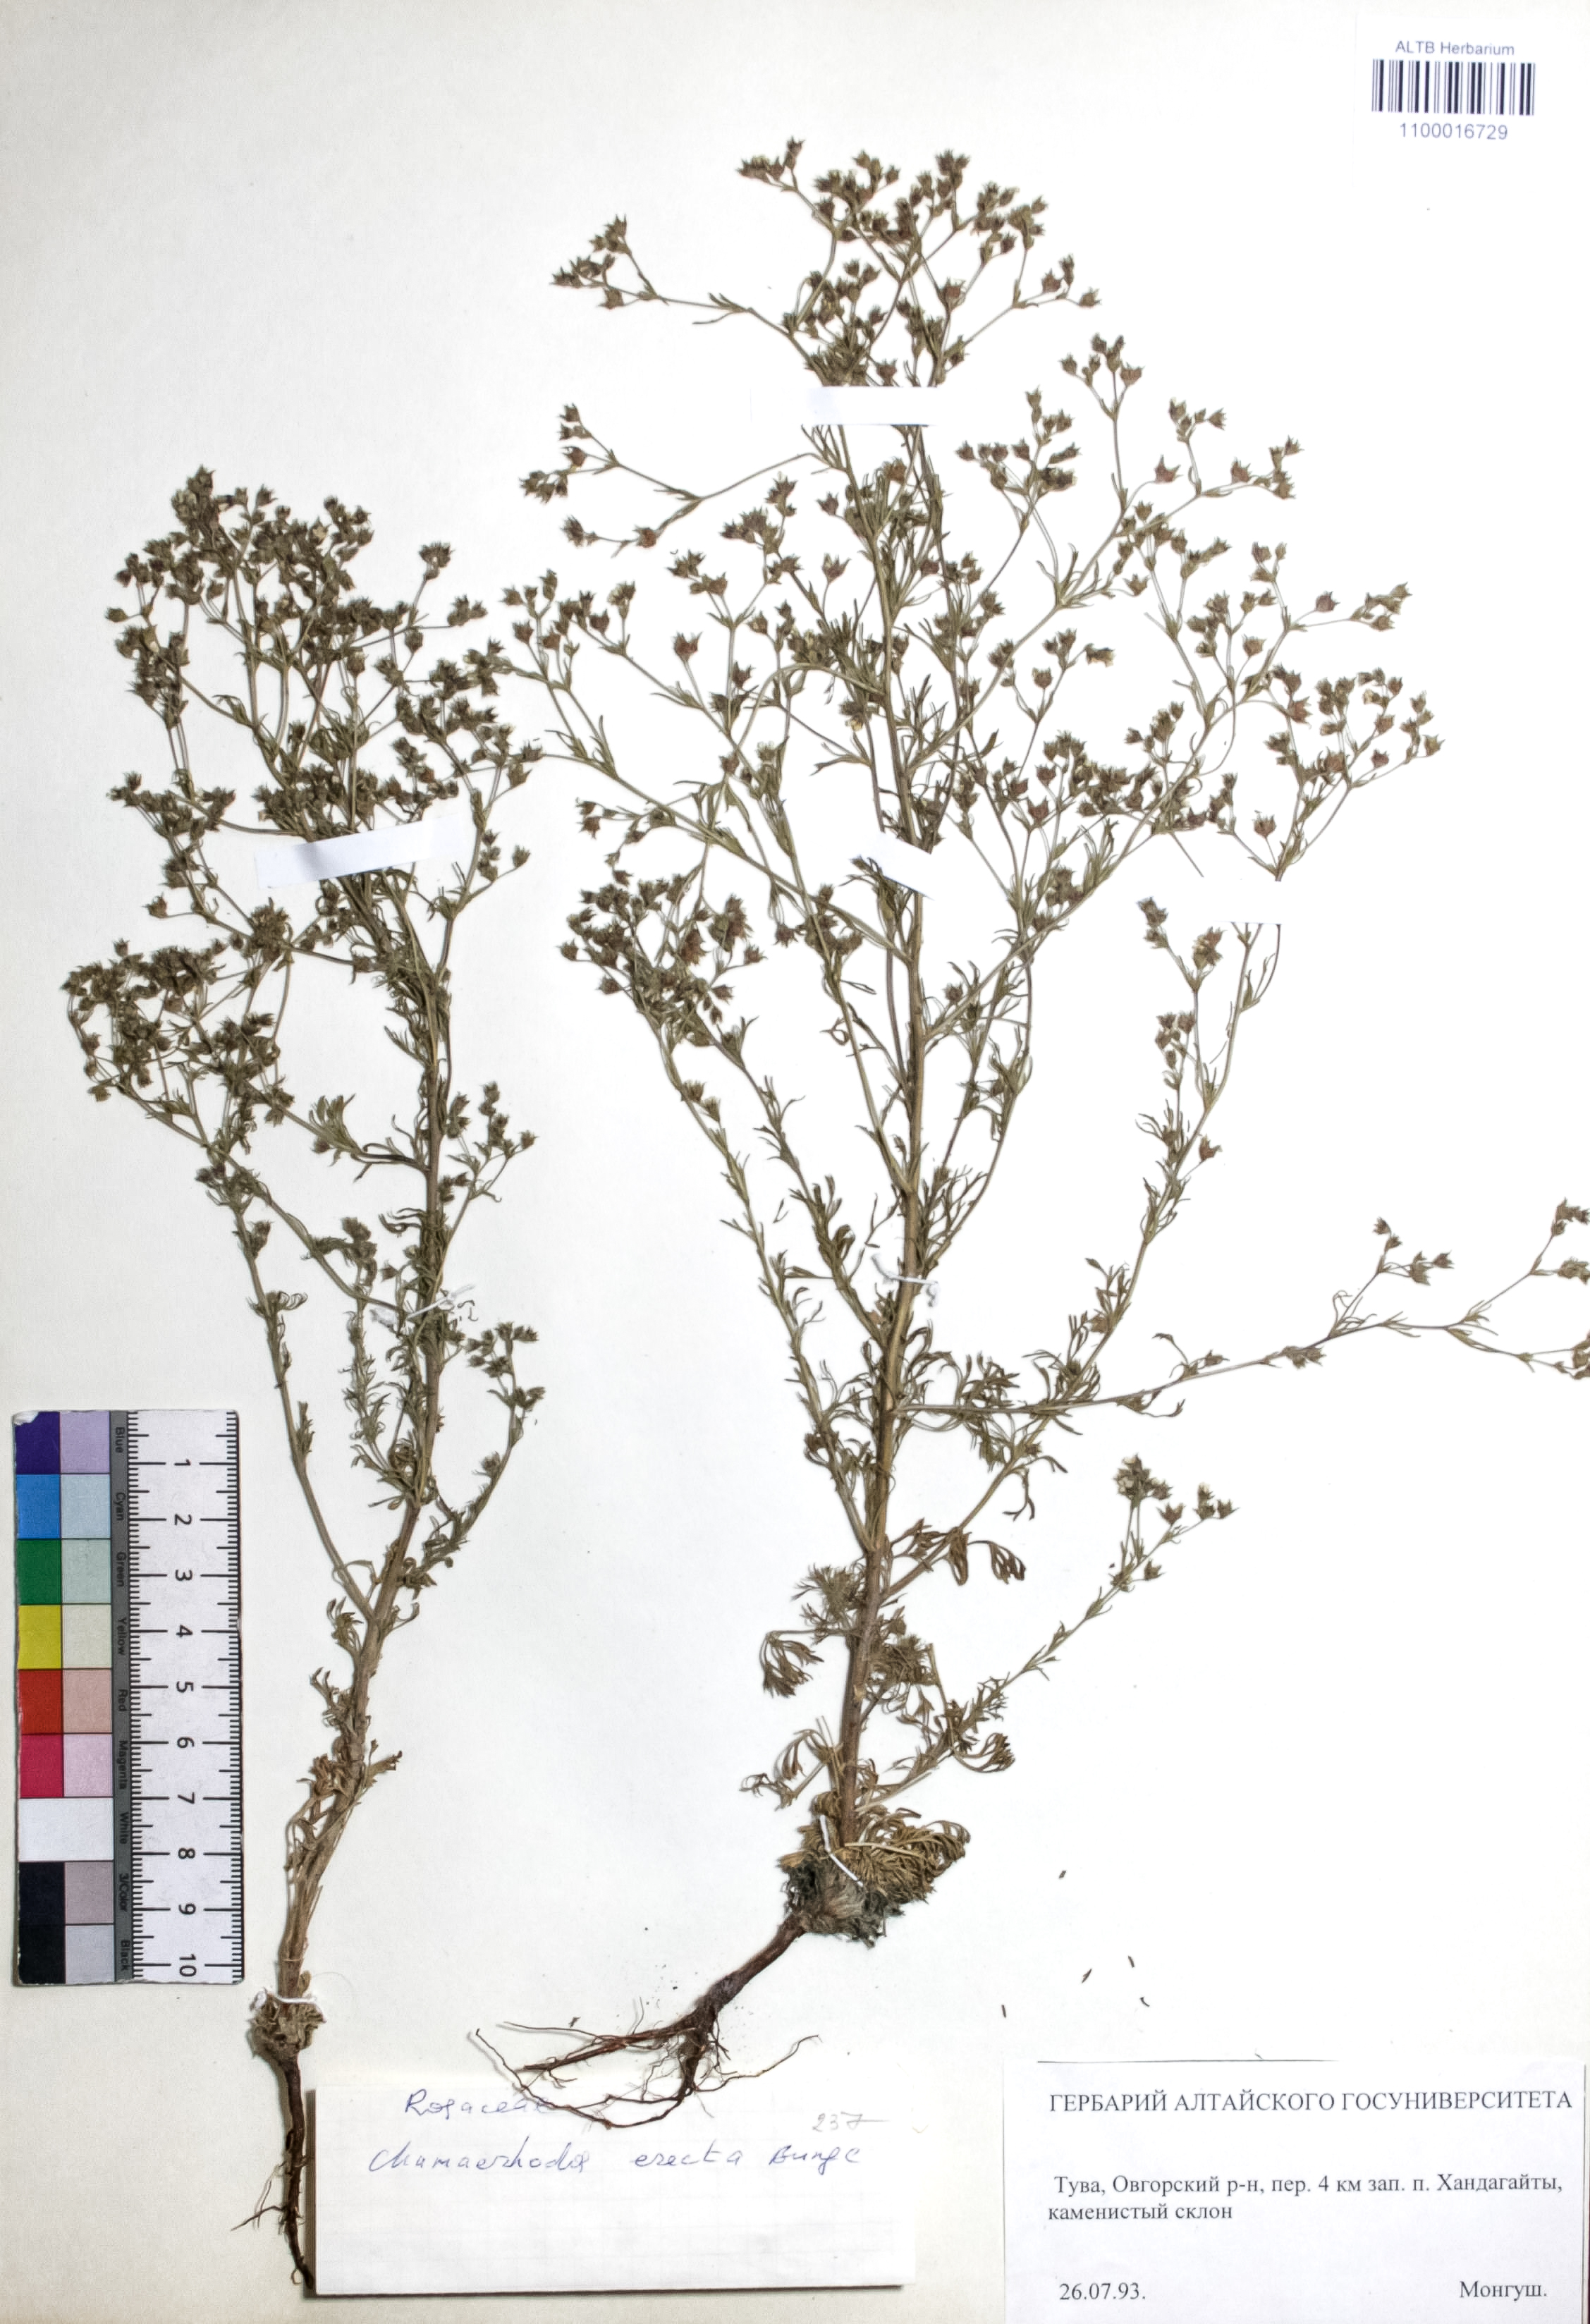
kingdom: Plantae
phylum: Tracheophyta
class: Magnoliopsida
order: Rosales
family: Rosaceae
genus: Chamaerhodos
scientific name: Chamaerhodos erecta
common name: American chamaerhodos
